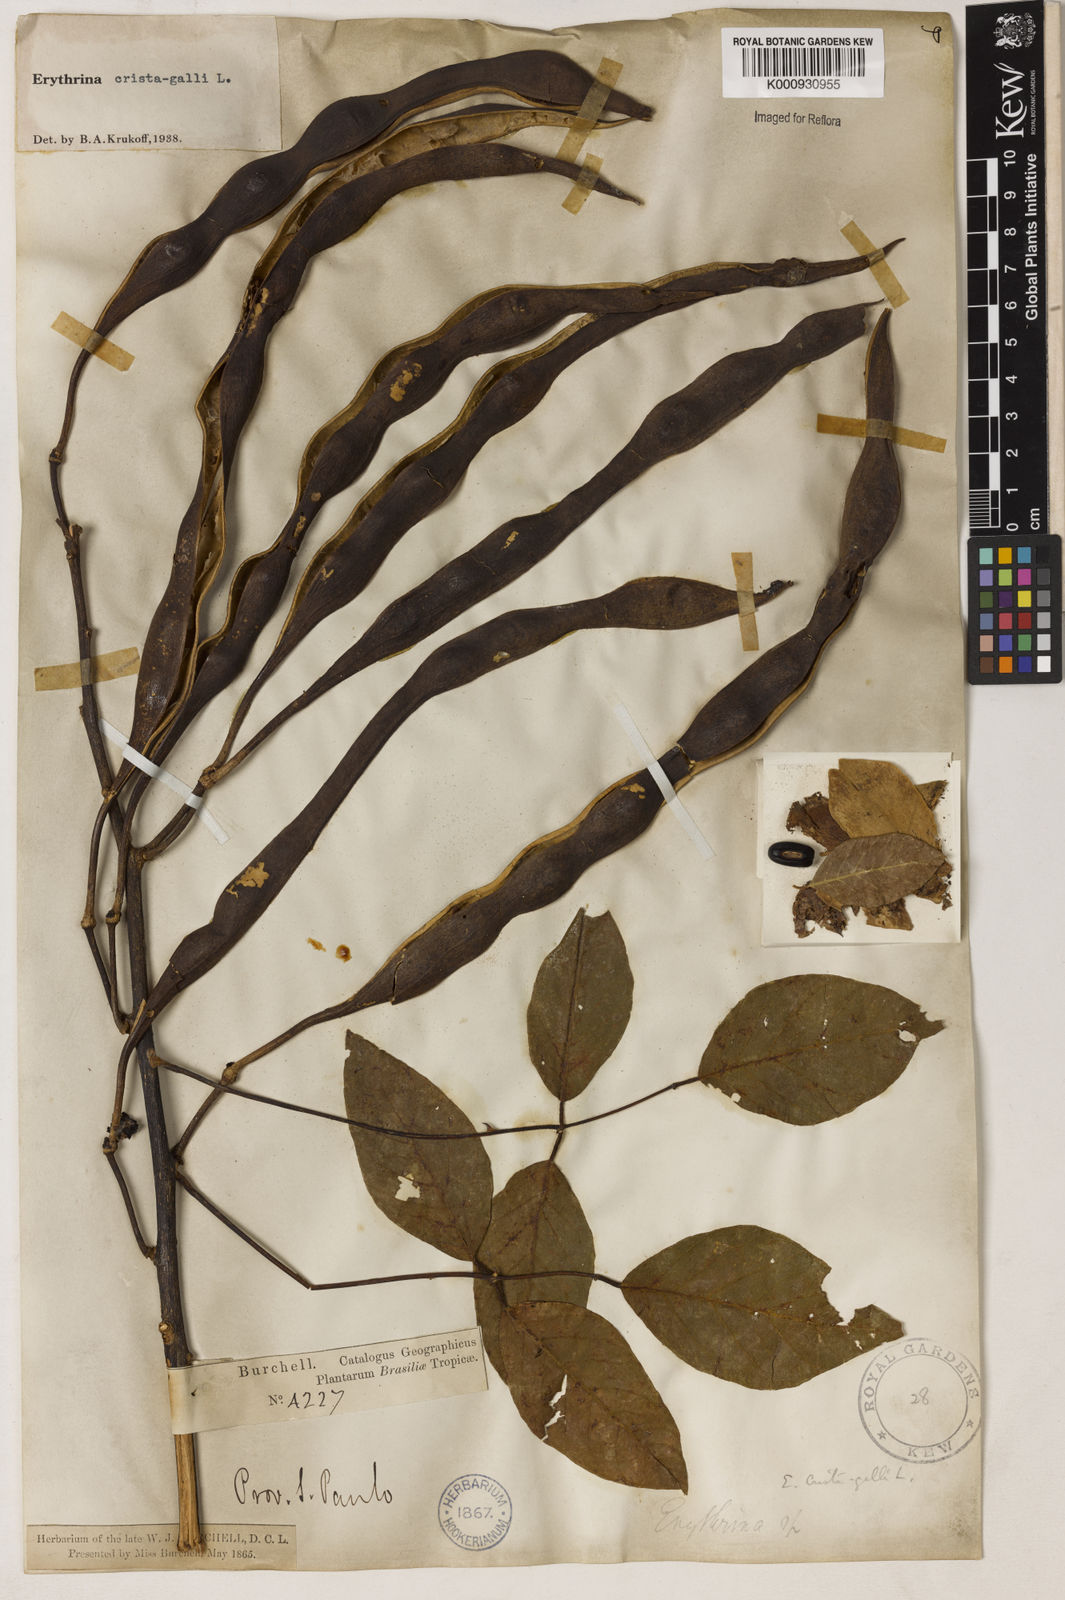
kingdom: Plantae
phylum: Tracheophyta
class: Magnoliopsida
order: Fabales
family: Fabaceae
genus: Erythrina
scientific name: Erythrina crista-galli
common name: Cockspur coral tree
